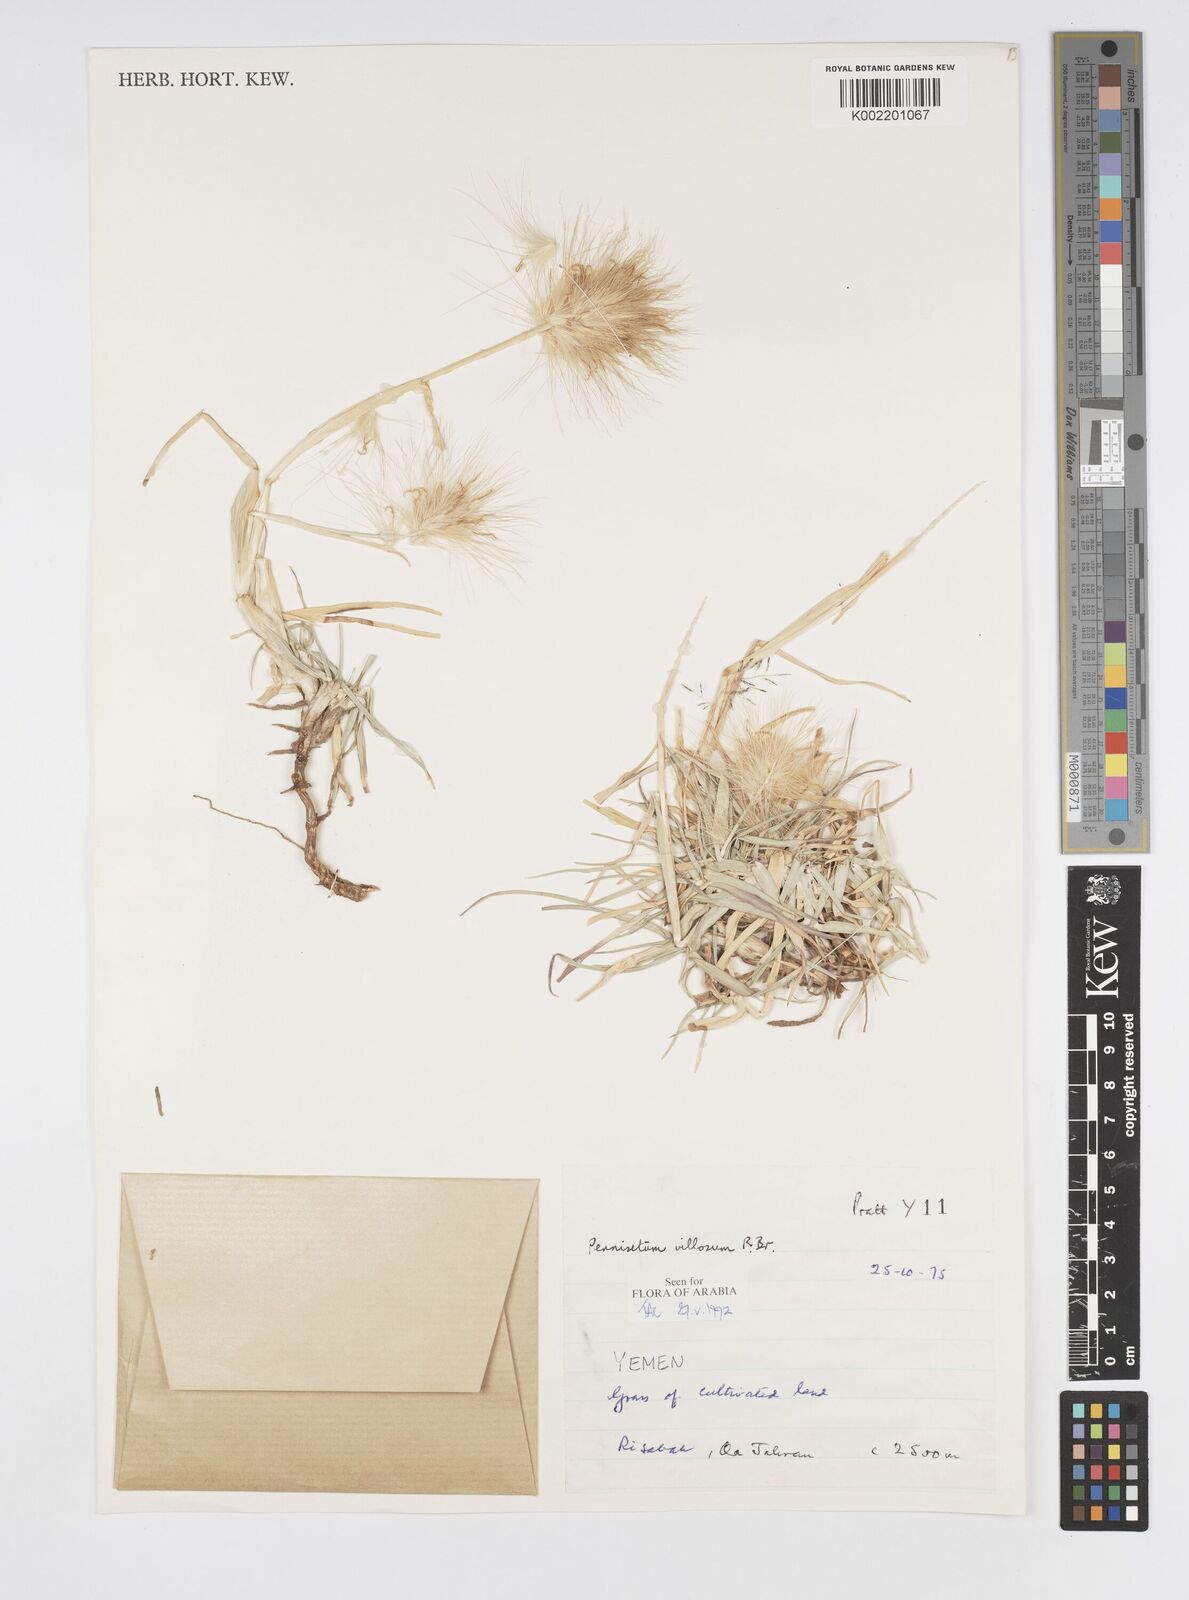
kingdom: Plantae
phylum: Tracheophyta
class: Liliopsida
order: Poales
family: Poaceae
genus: Cenchrus
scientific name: Cenchrus longisetus
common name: Feathertop
